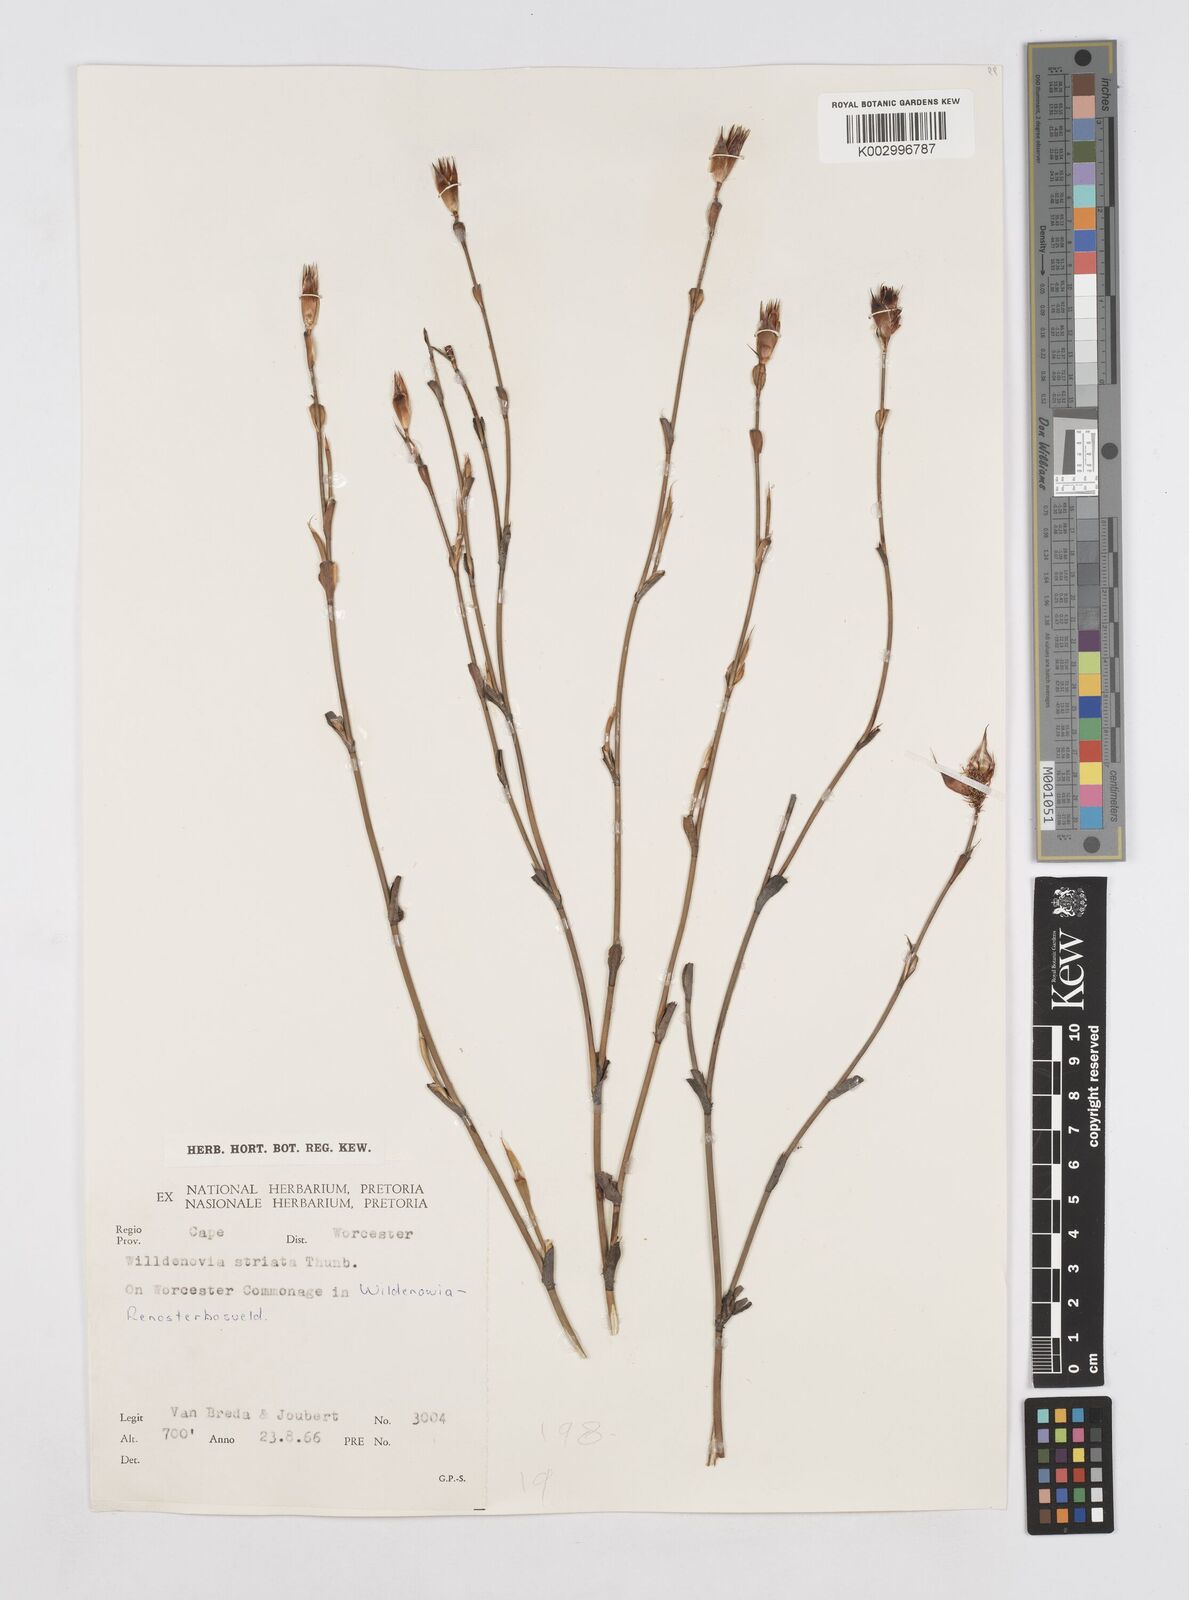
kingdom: Plantae
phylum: Tracheophyta
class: Liliopsida
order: Poales
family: Restionaceae
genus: Willdenowia
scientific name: Willdenowia teres
